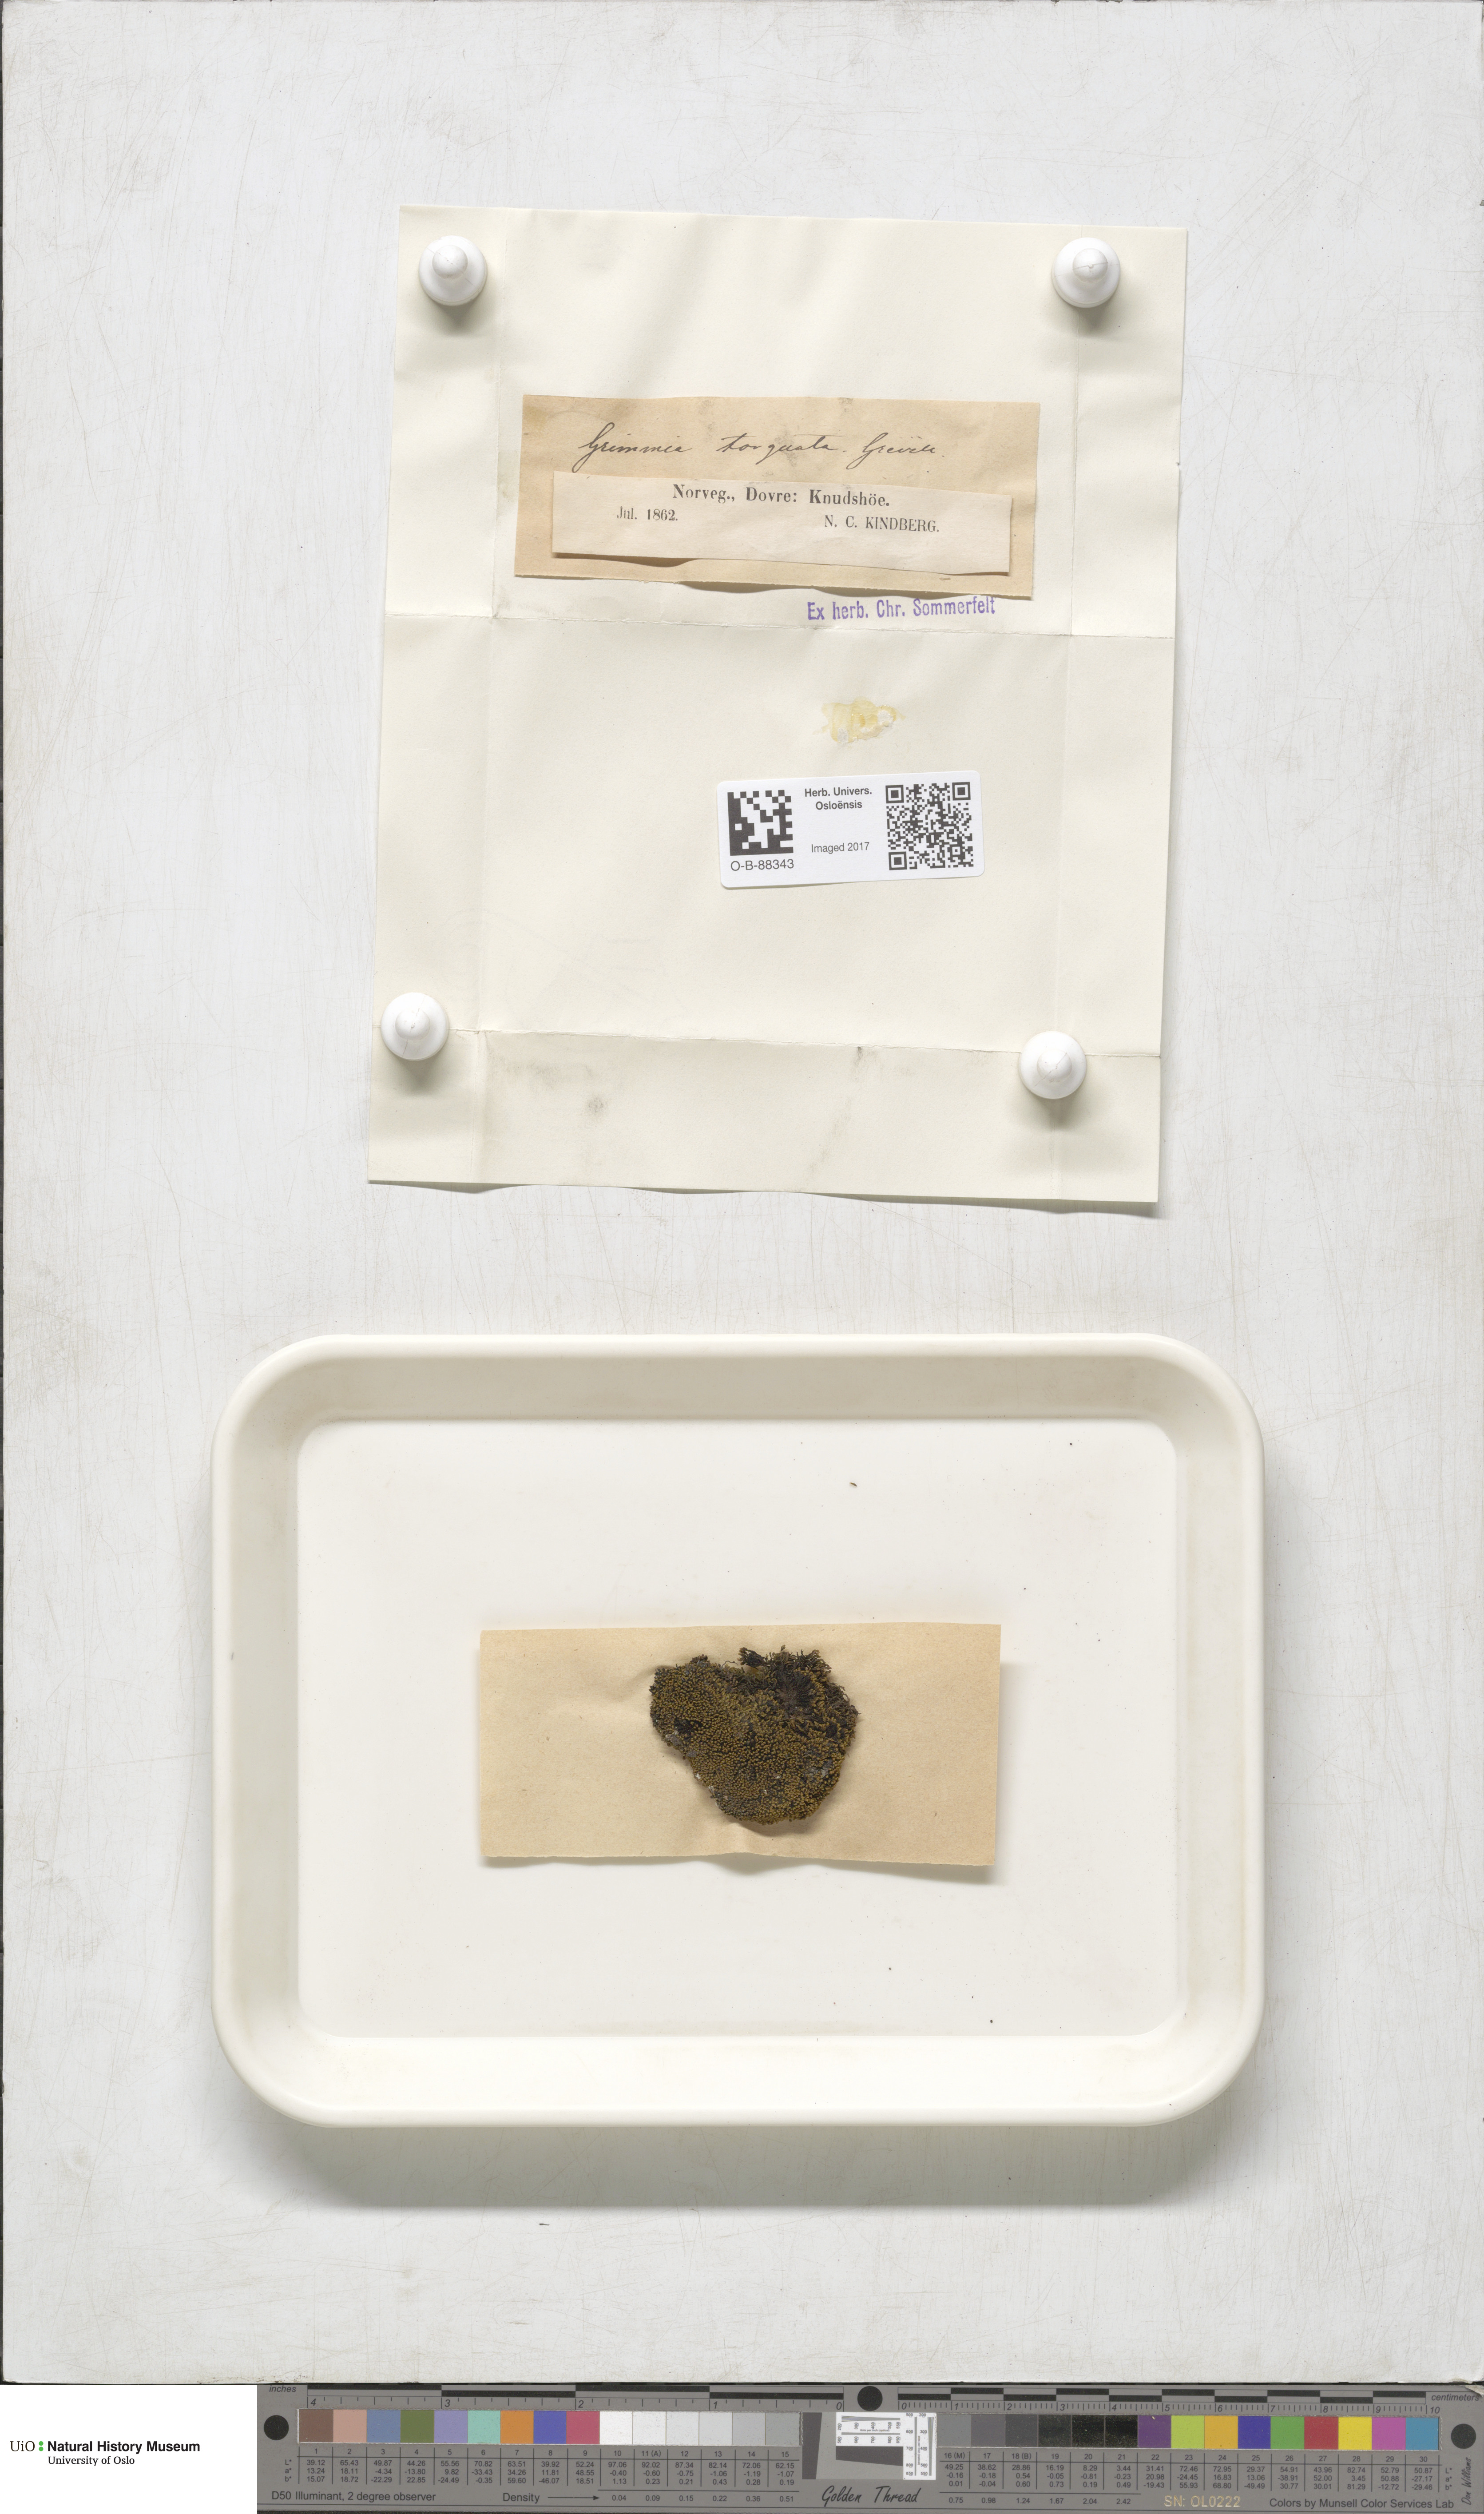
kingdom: Plantae
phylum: Bryophyta
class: Bryopsida
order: Grimmiales
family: Grimmiaceae
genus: Grimmia
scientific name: Grimmia torquata
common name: Twisted grimmia
